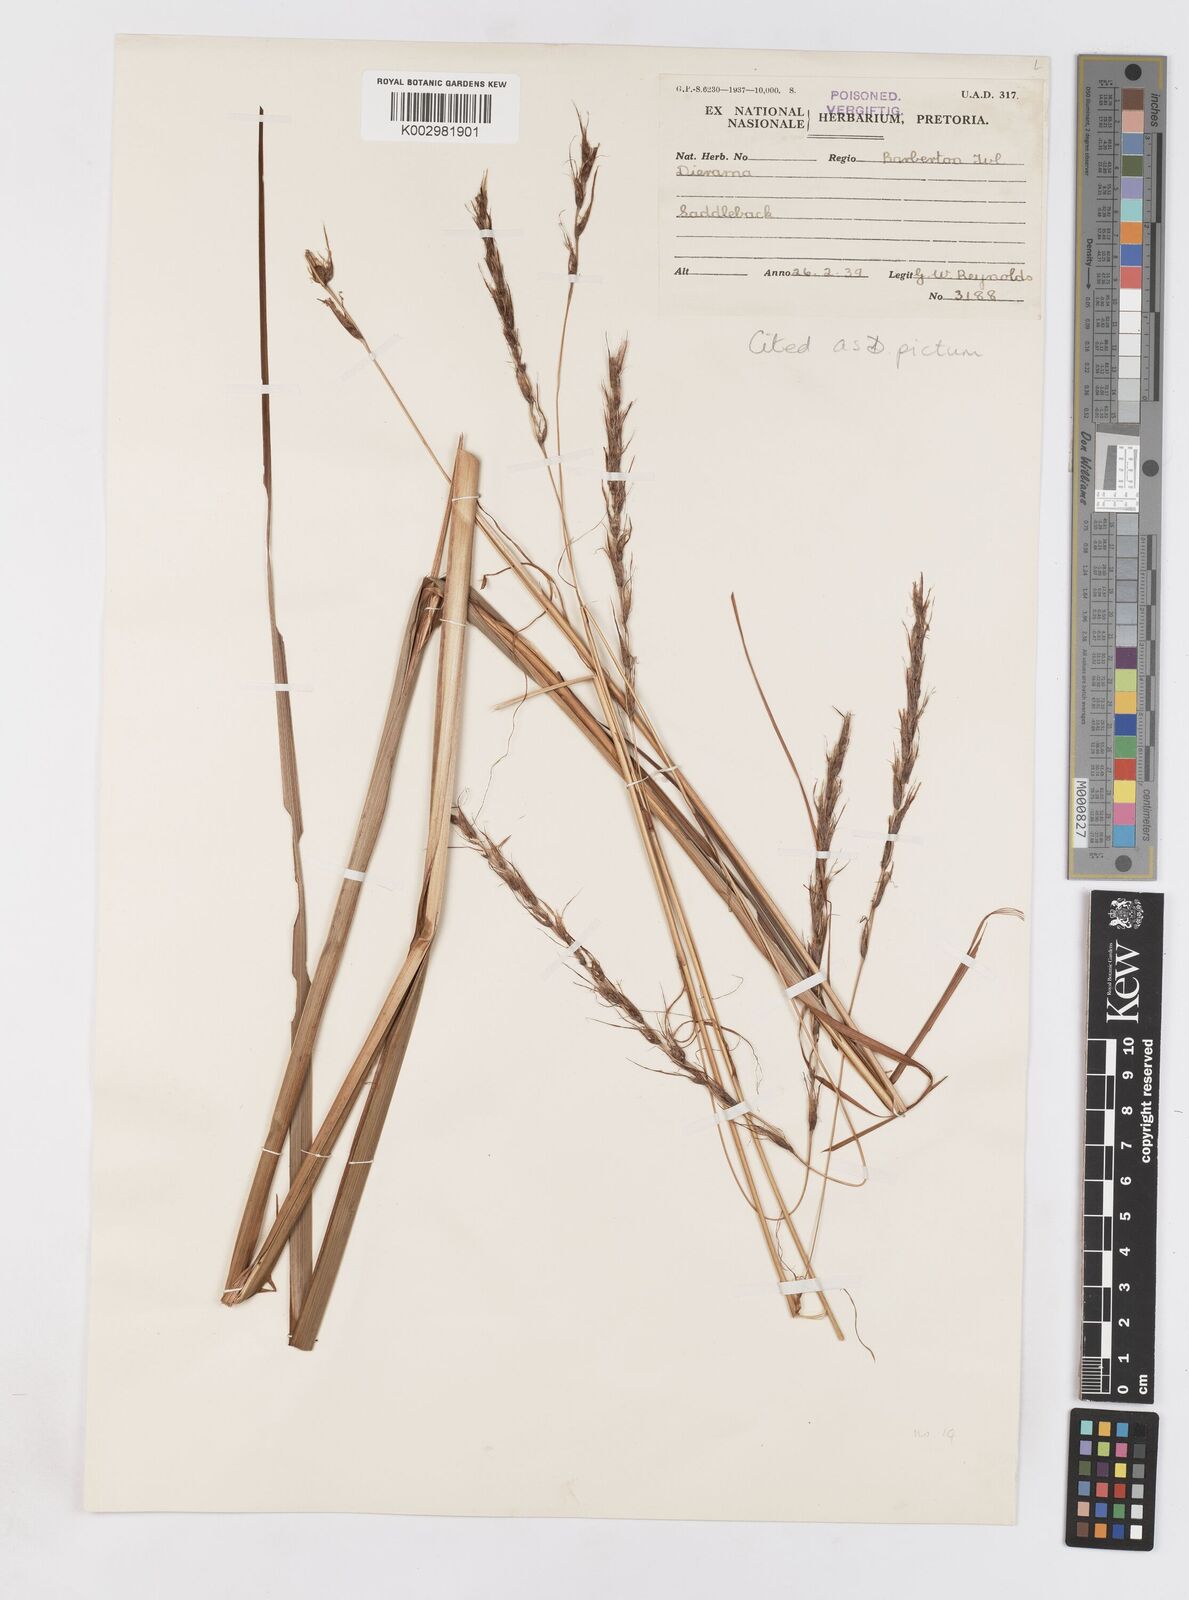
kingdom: Plantae
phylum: Tracheophyta
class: Liliopsida
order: Asparagales
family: Iridaceae
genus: Dierama
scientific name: Dierama pictum
